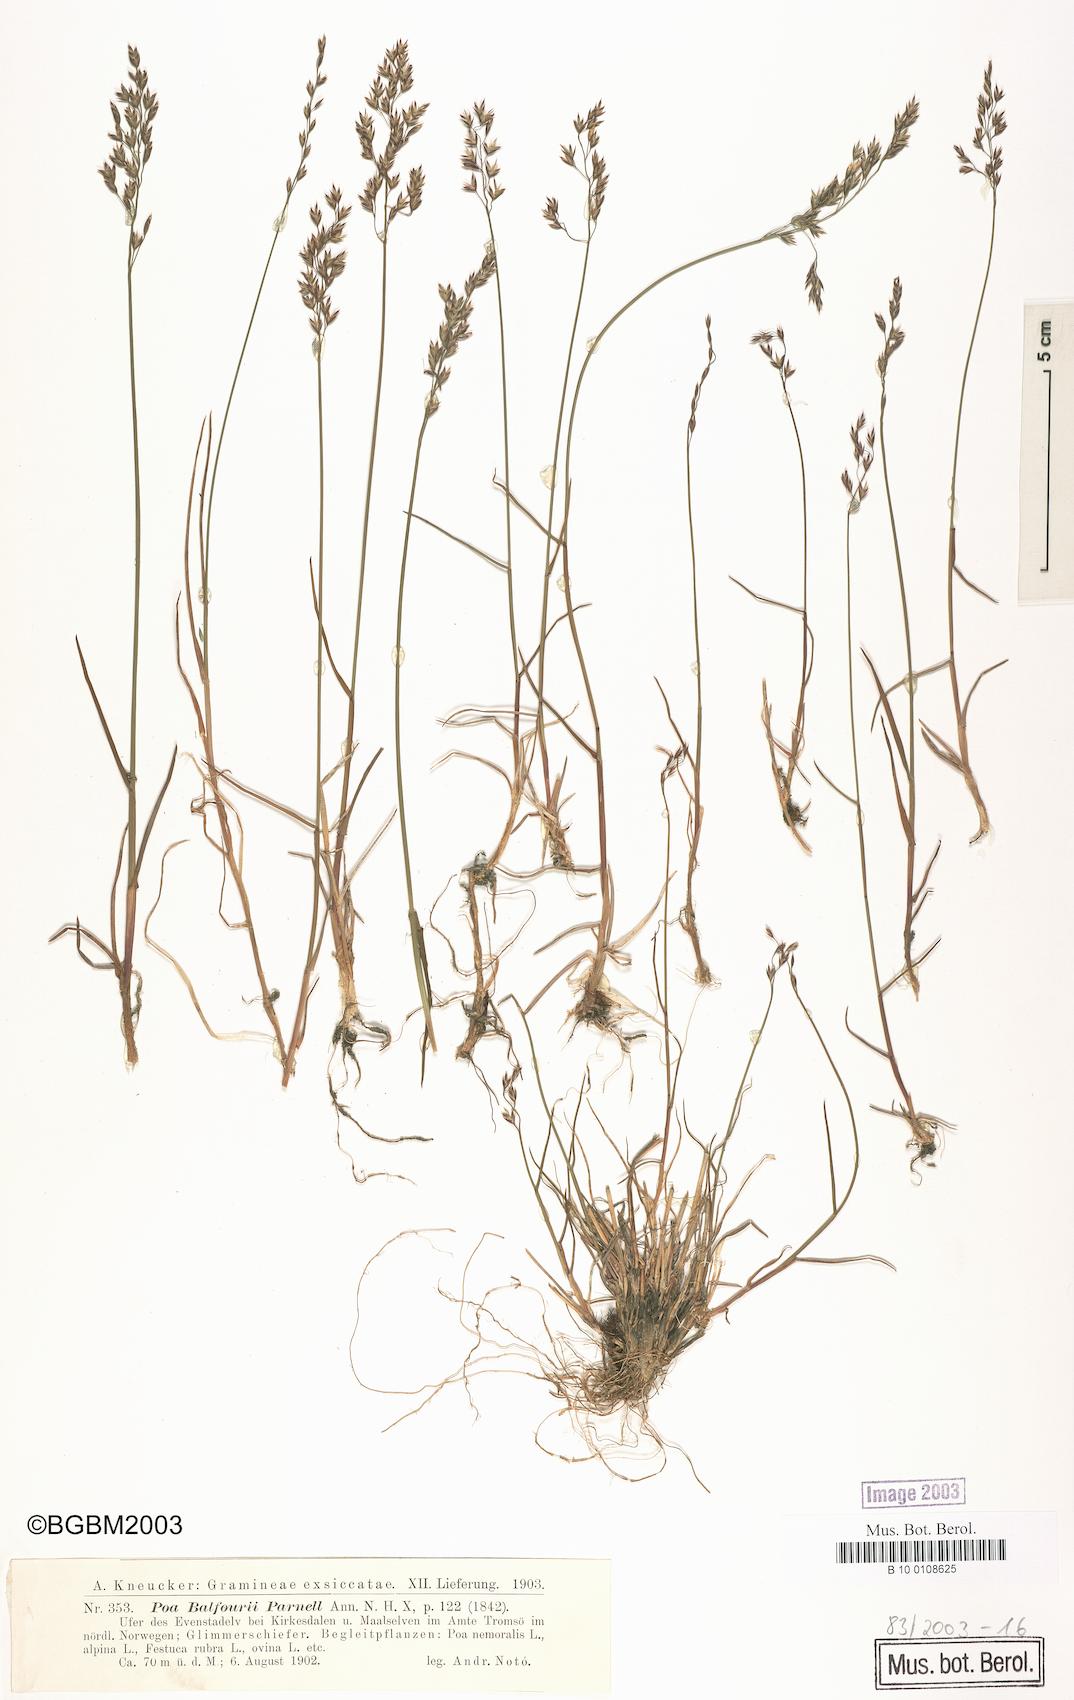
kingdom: Plantae
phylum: Tracheophyta
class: Liliopsida
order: Poales
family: Poaceae
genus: Poa
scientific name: Poa glauca
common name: Glaucous bluegrass
